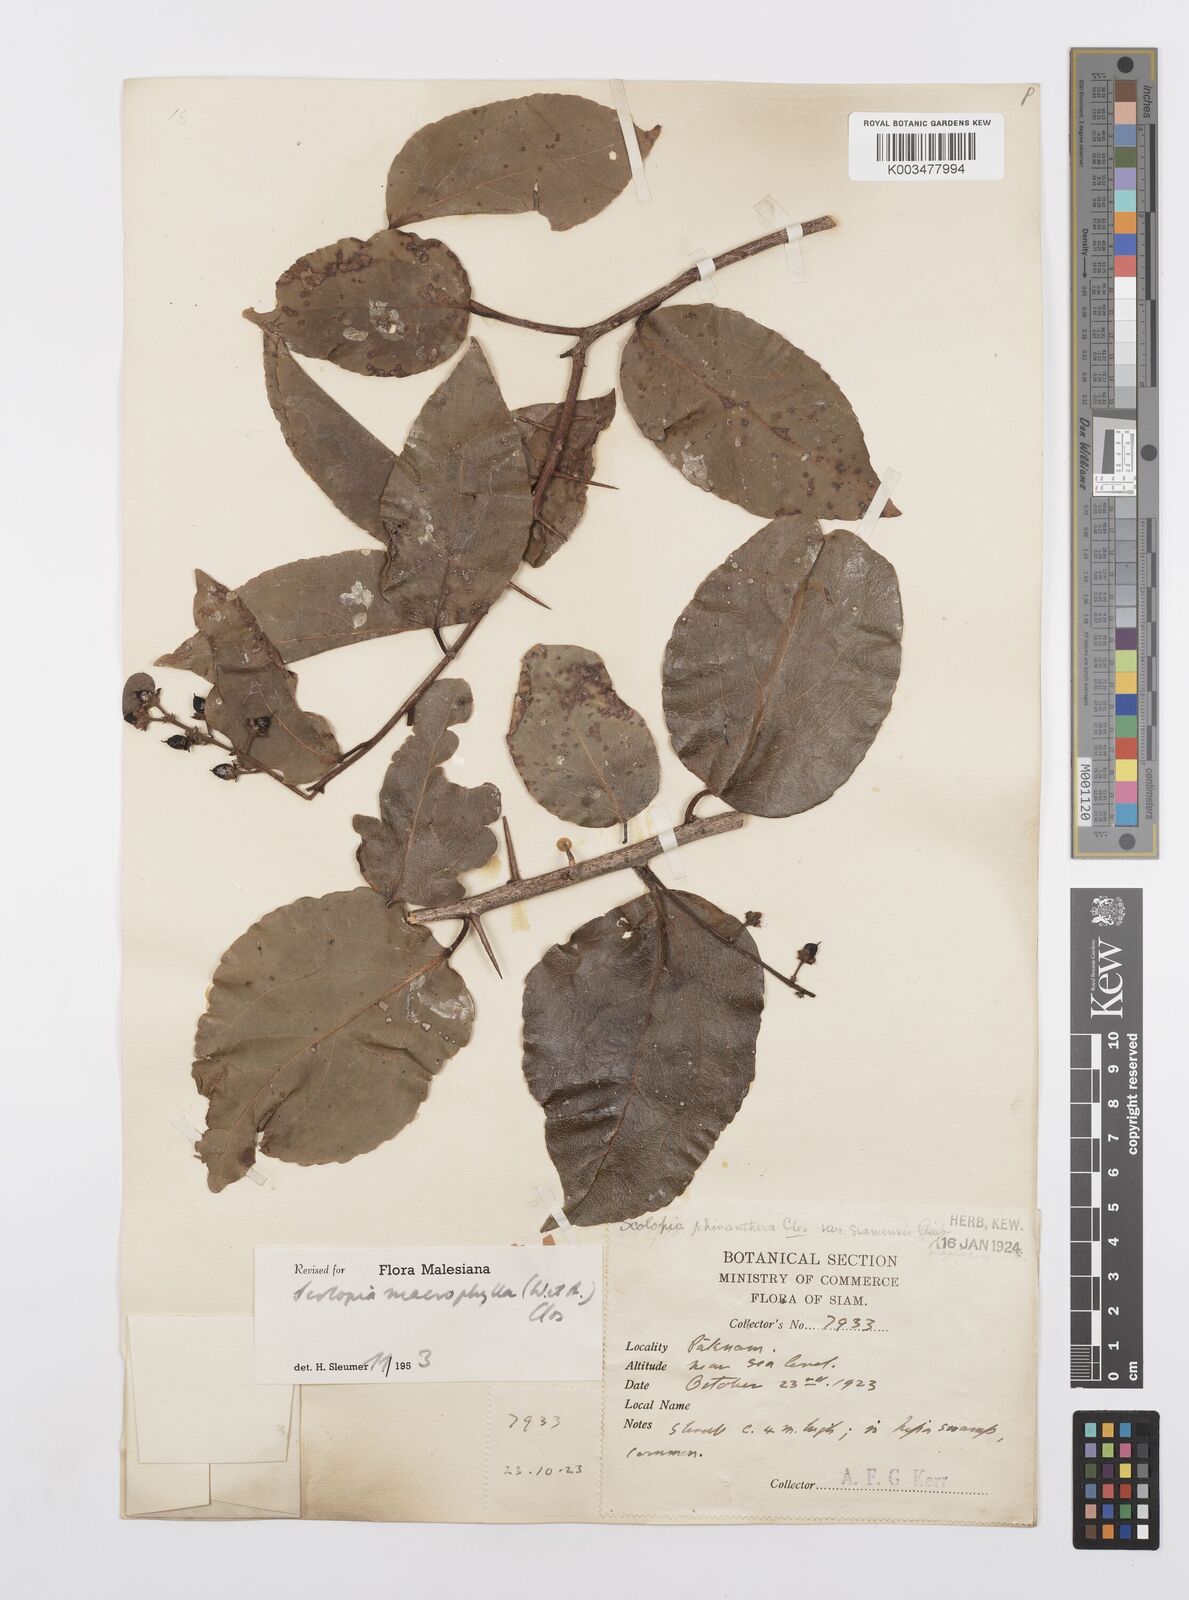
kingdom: Plantae
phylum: Tracheophyta
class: Magnoliopsida
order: Malpighiales
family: Salicaceae
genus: Scolopia
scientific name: Scolopia macrophylla
